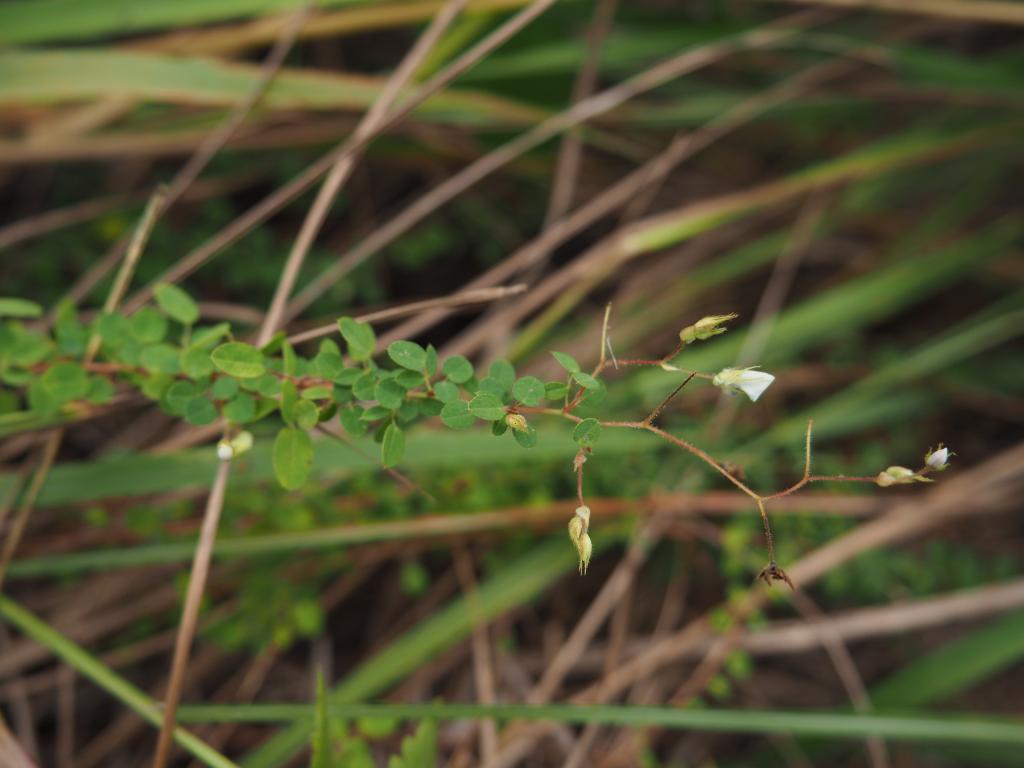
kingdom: Plantae
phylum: Tracheophyta
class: Magnoliopsida
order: Fabales
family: Fabaceae
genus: Leptodesmia
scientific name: Leptodesmia microphylla
